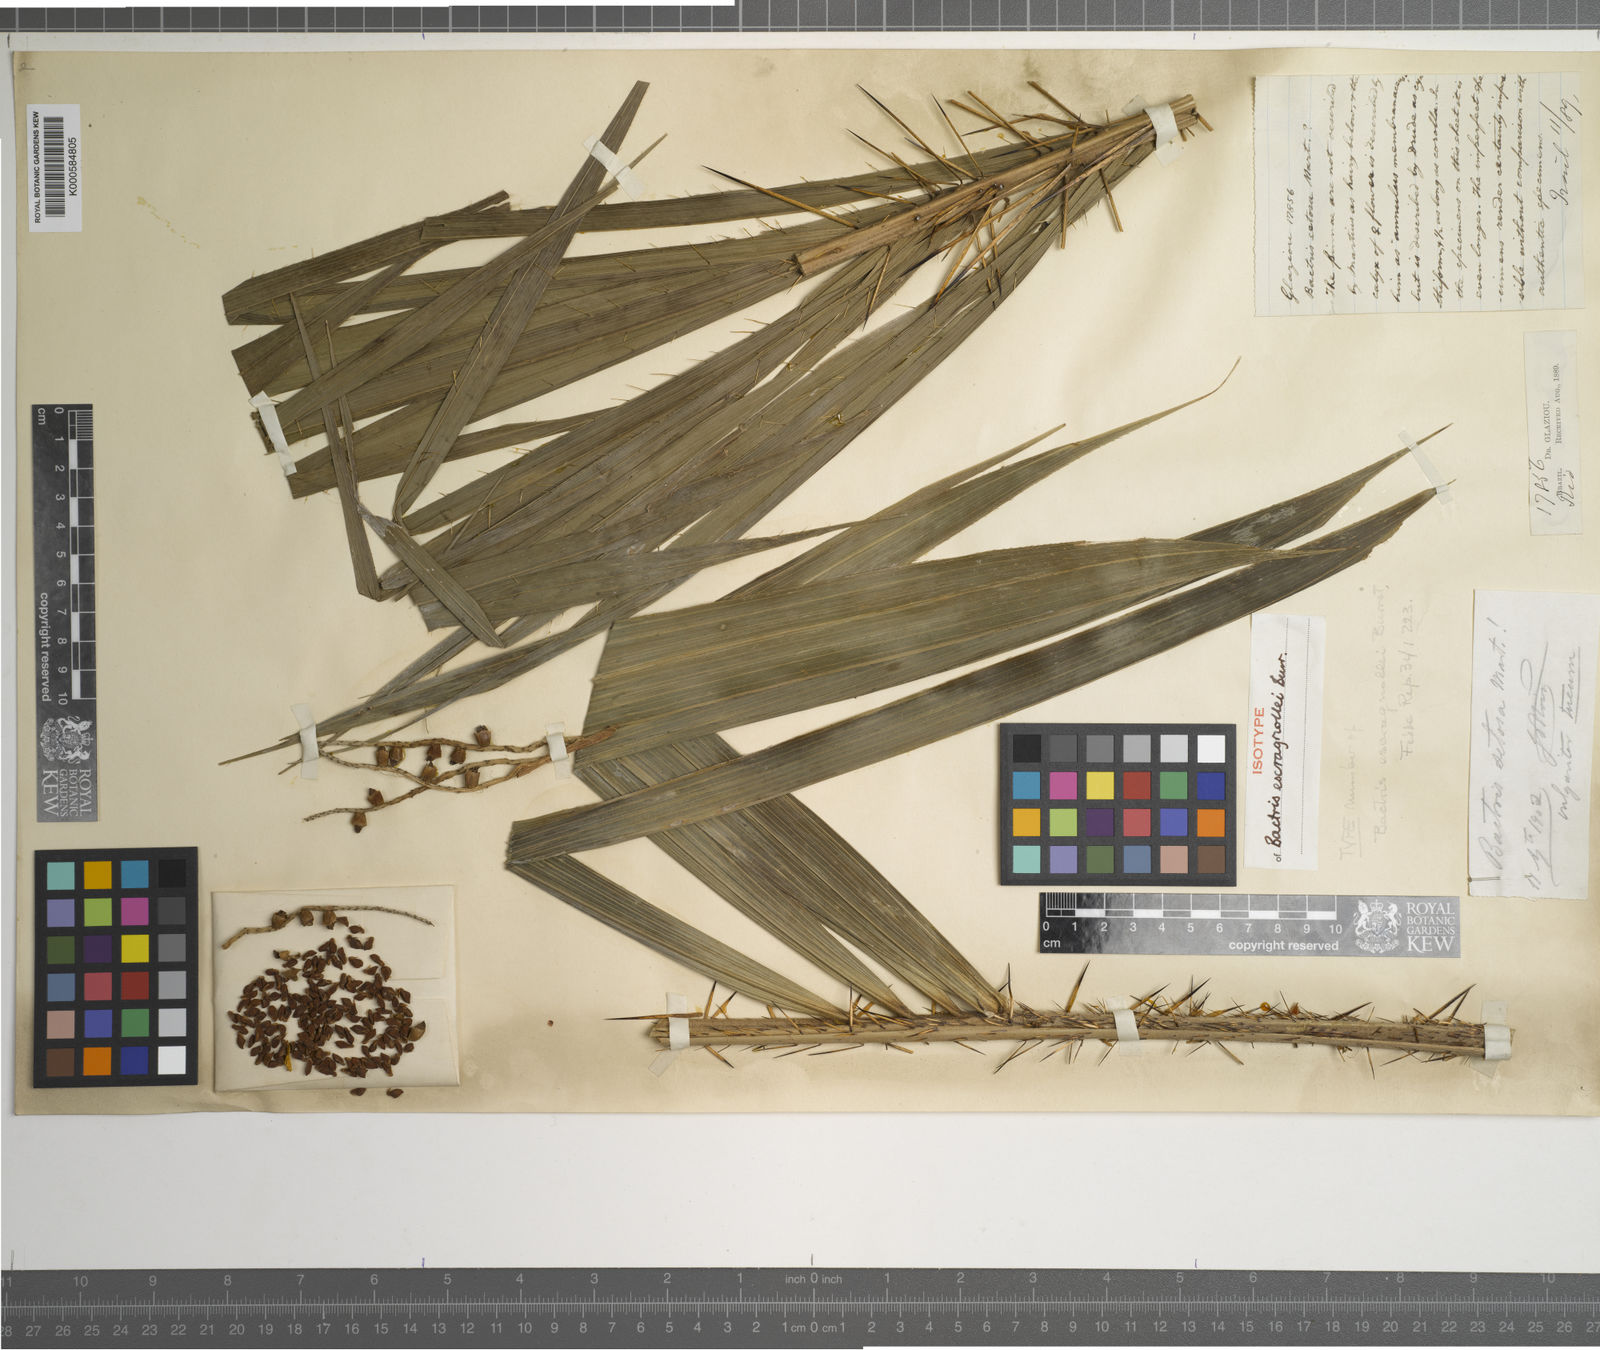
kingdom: Plantae
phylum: Tracheophyta
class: Liliopsida
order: Arecales
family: Arecaceae
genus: Bactris
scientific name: Bactris setosa
